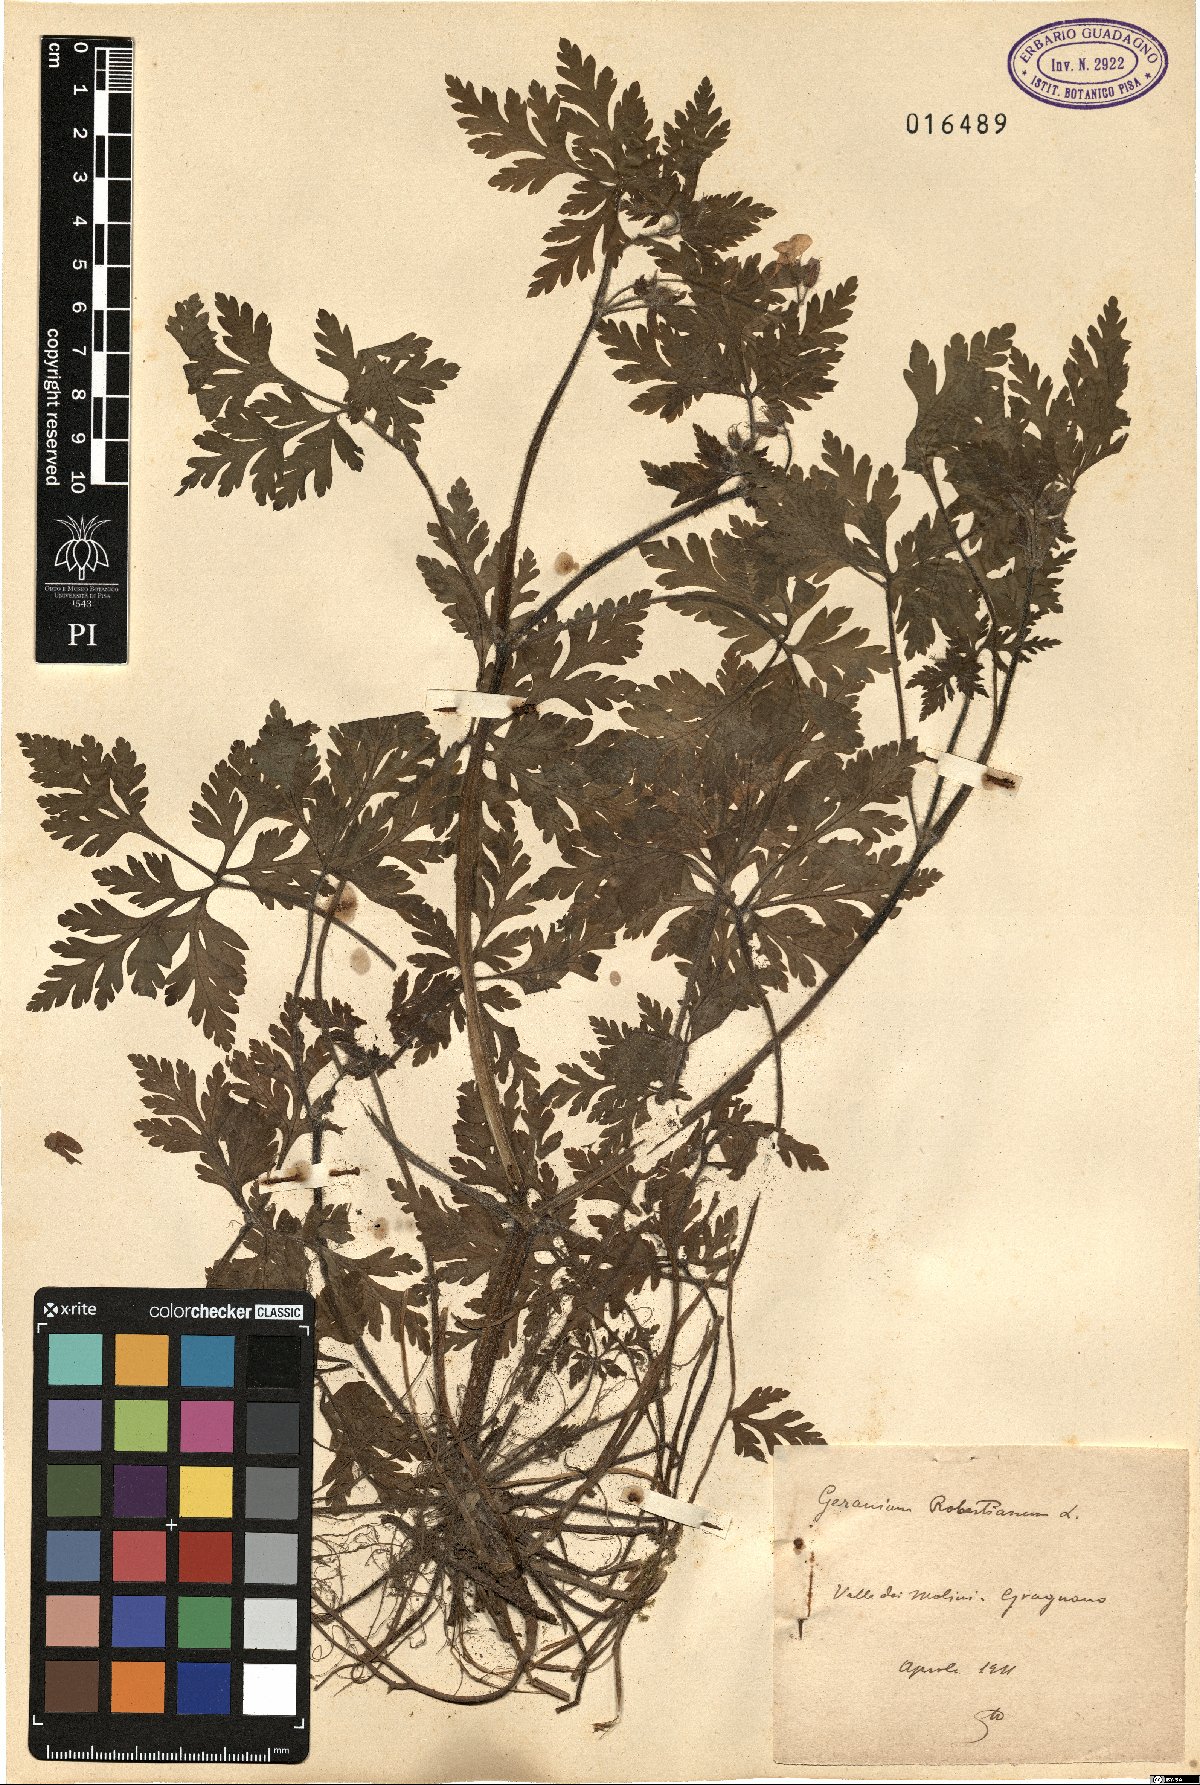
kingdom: Plantae
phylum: Tracheophyta
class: Magnoliopsida
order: Geraniales
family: Geraniaceae
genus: Geranium
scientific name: Geranium robertianum
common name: Herb-robert
